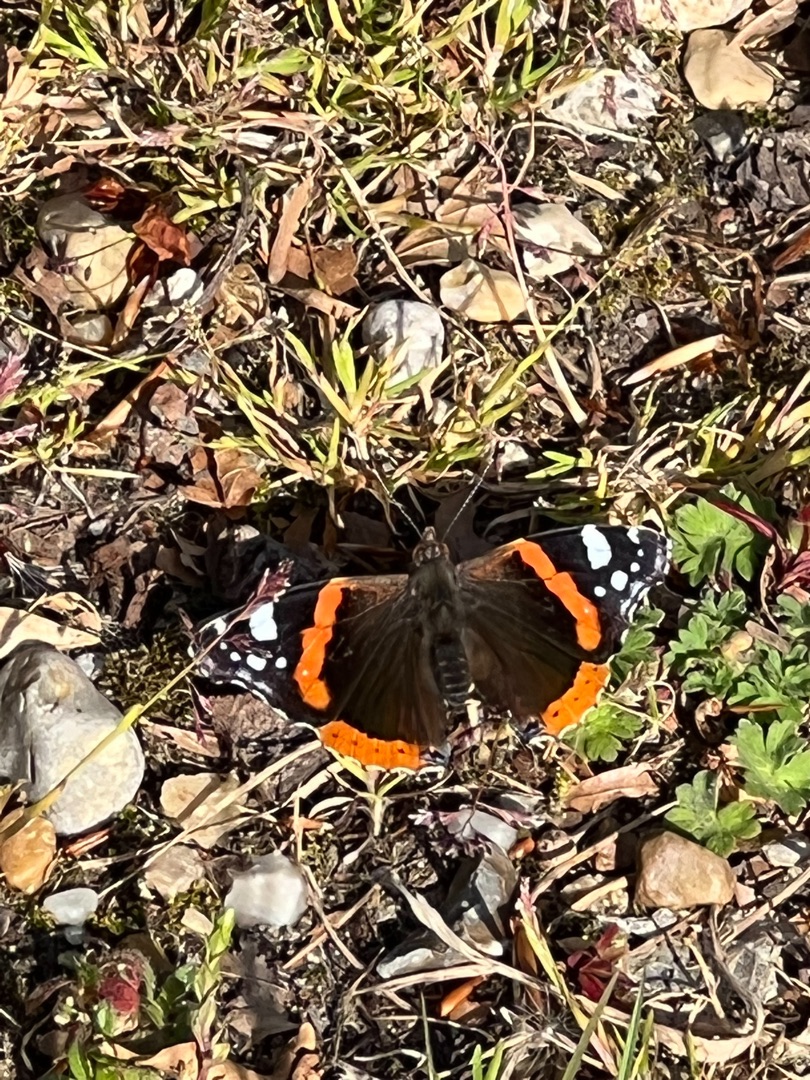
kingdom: Animalia
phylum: Arthropoda
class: Insecta
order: Lepidoptera
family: Nymphalidae
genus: Vanessa
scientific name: Vanessa atalanta
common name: Admiral
